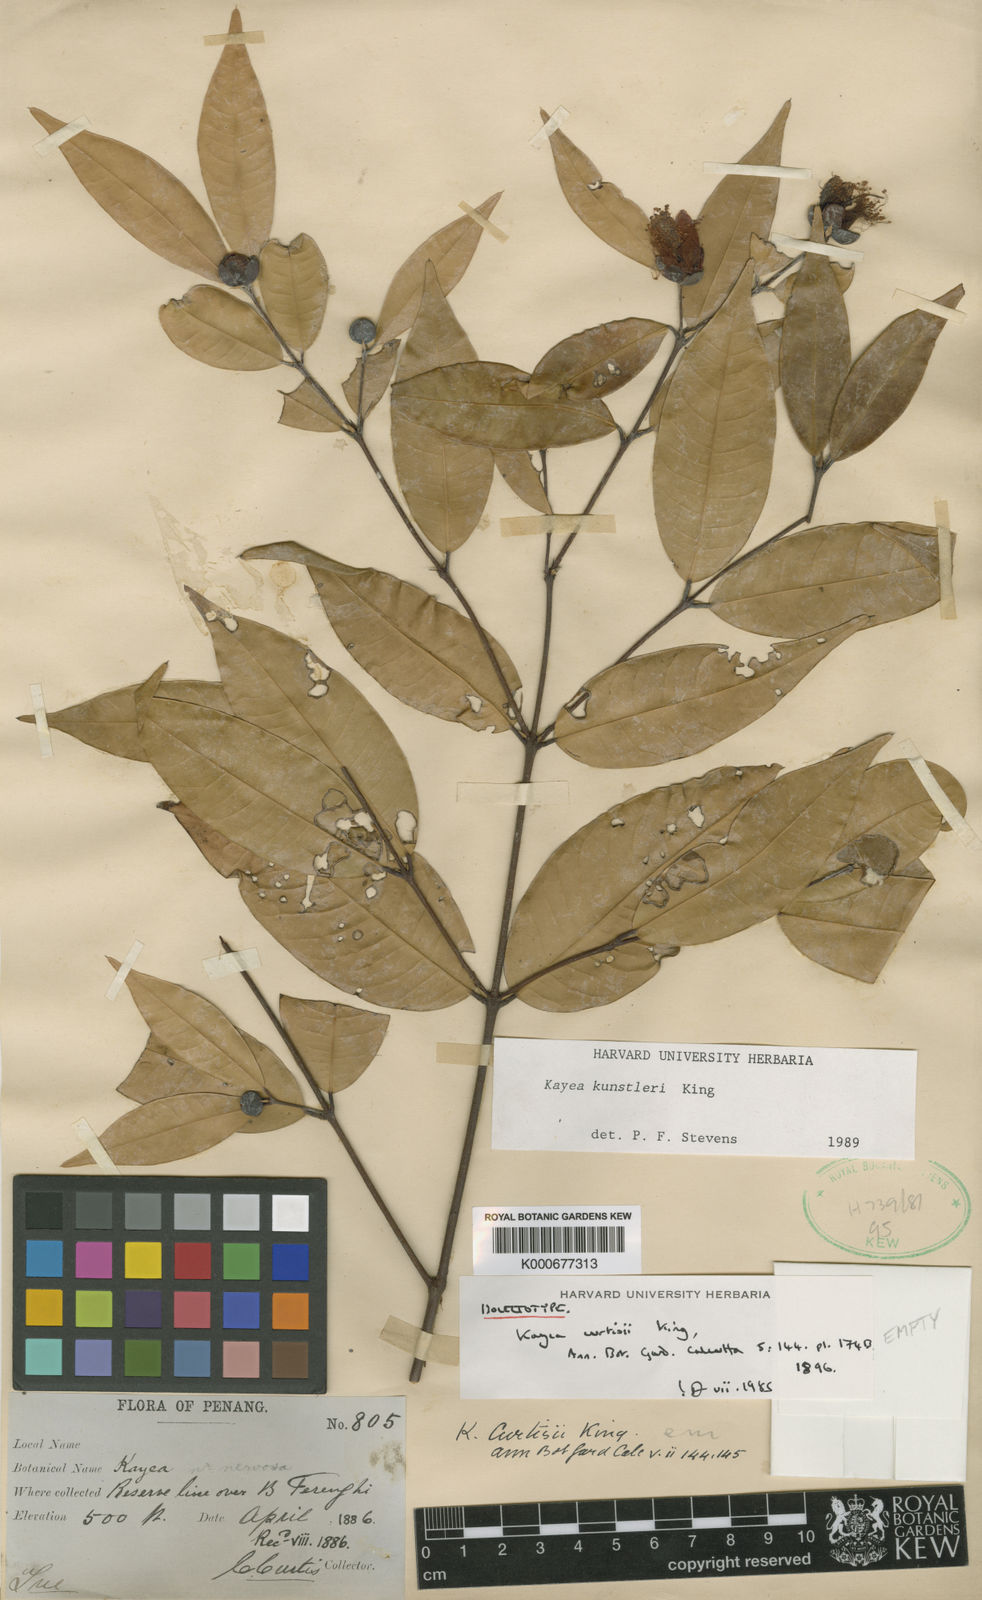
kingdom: Plantae
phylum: Tracheophyta
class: Magnoliopsida
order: Malpighiales
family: Calophyllaceae
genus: Kayea
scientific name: Kayea kunstleri
